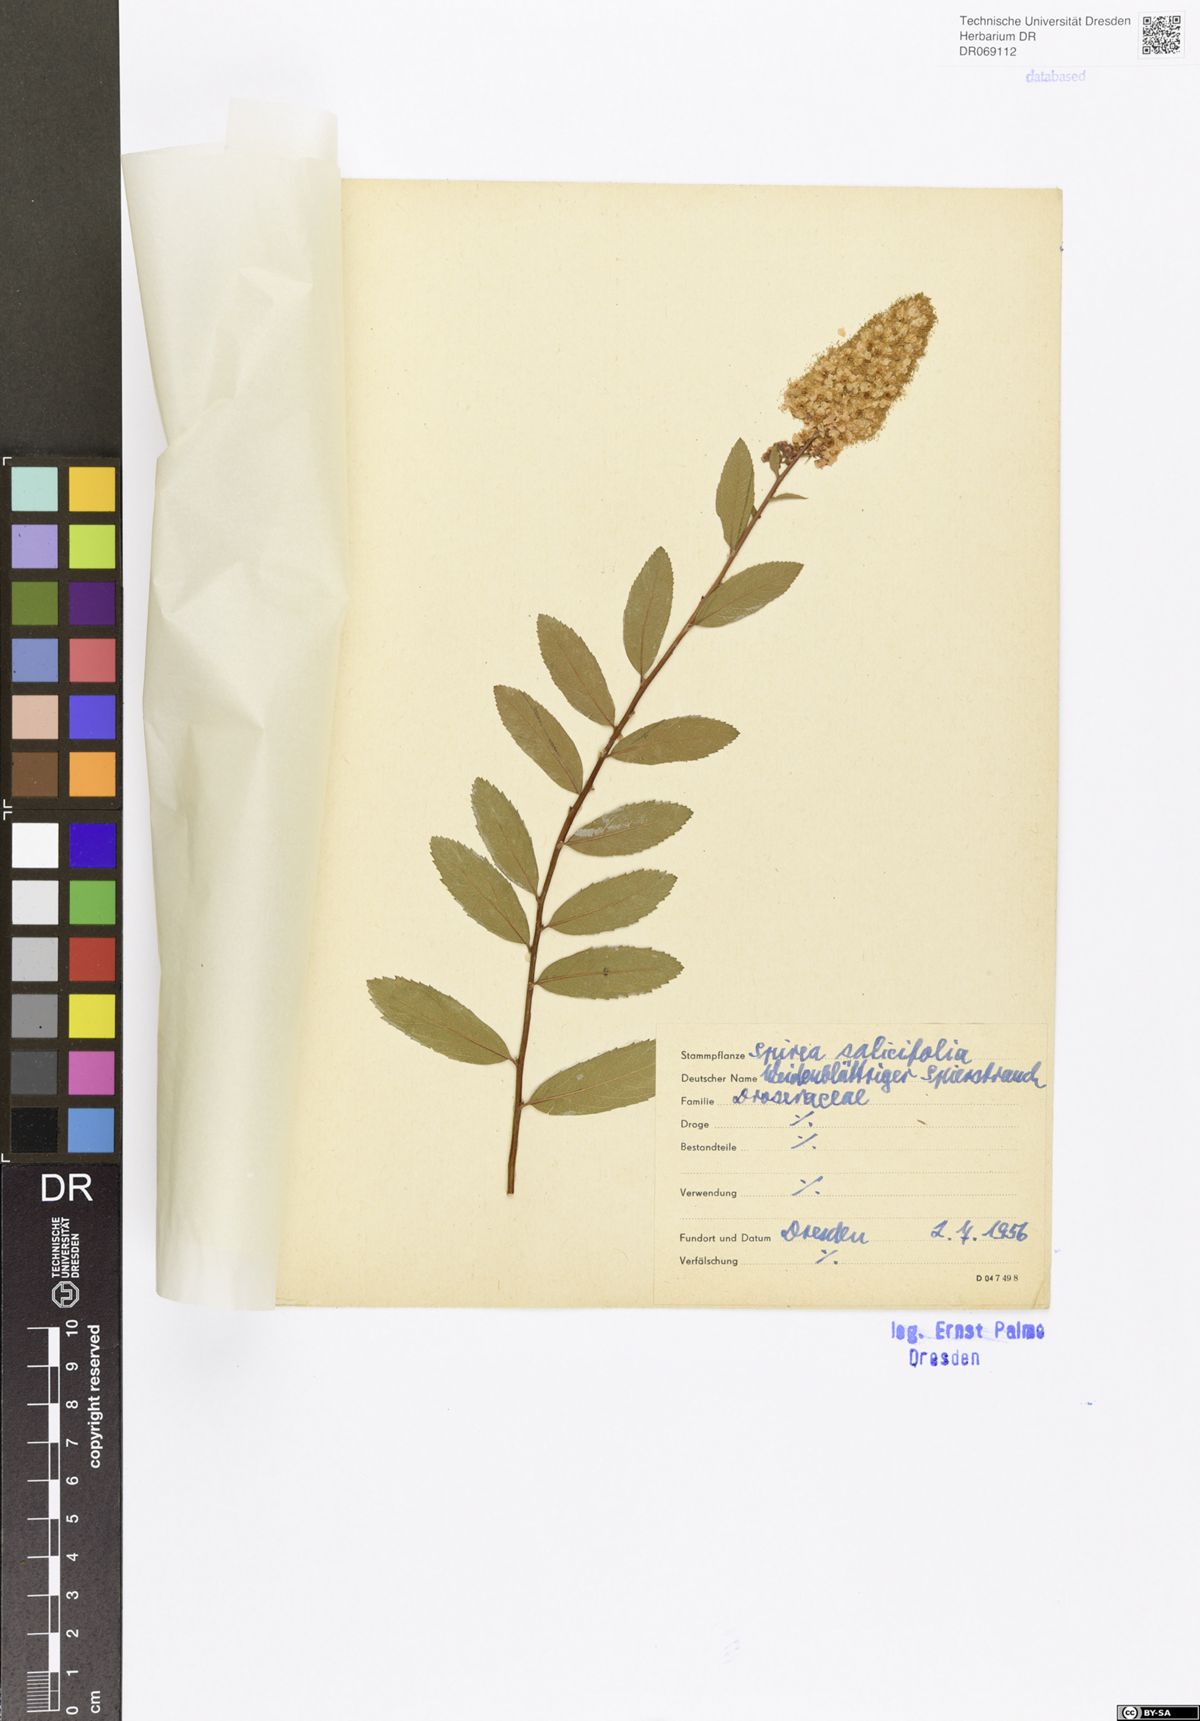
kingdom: Plantae
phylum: Tracheophyta
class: Magnoliopsida
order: Rosales
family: Rosaceae
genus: Spiraea
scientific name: Spiraea salicifolia
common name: Bridewort
